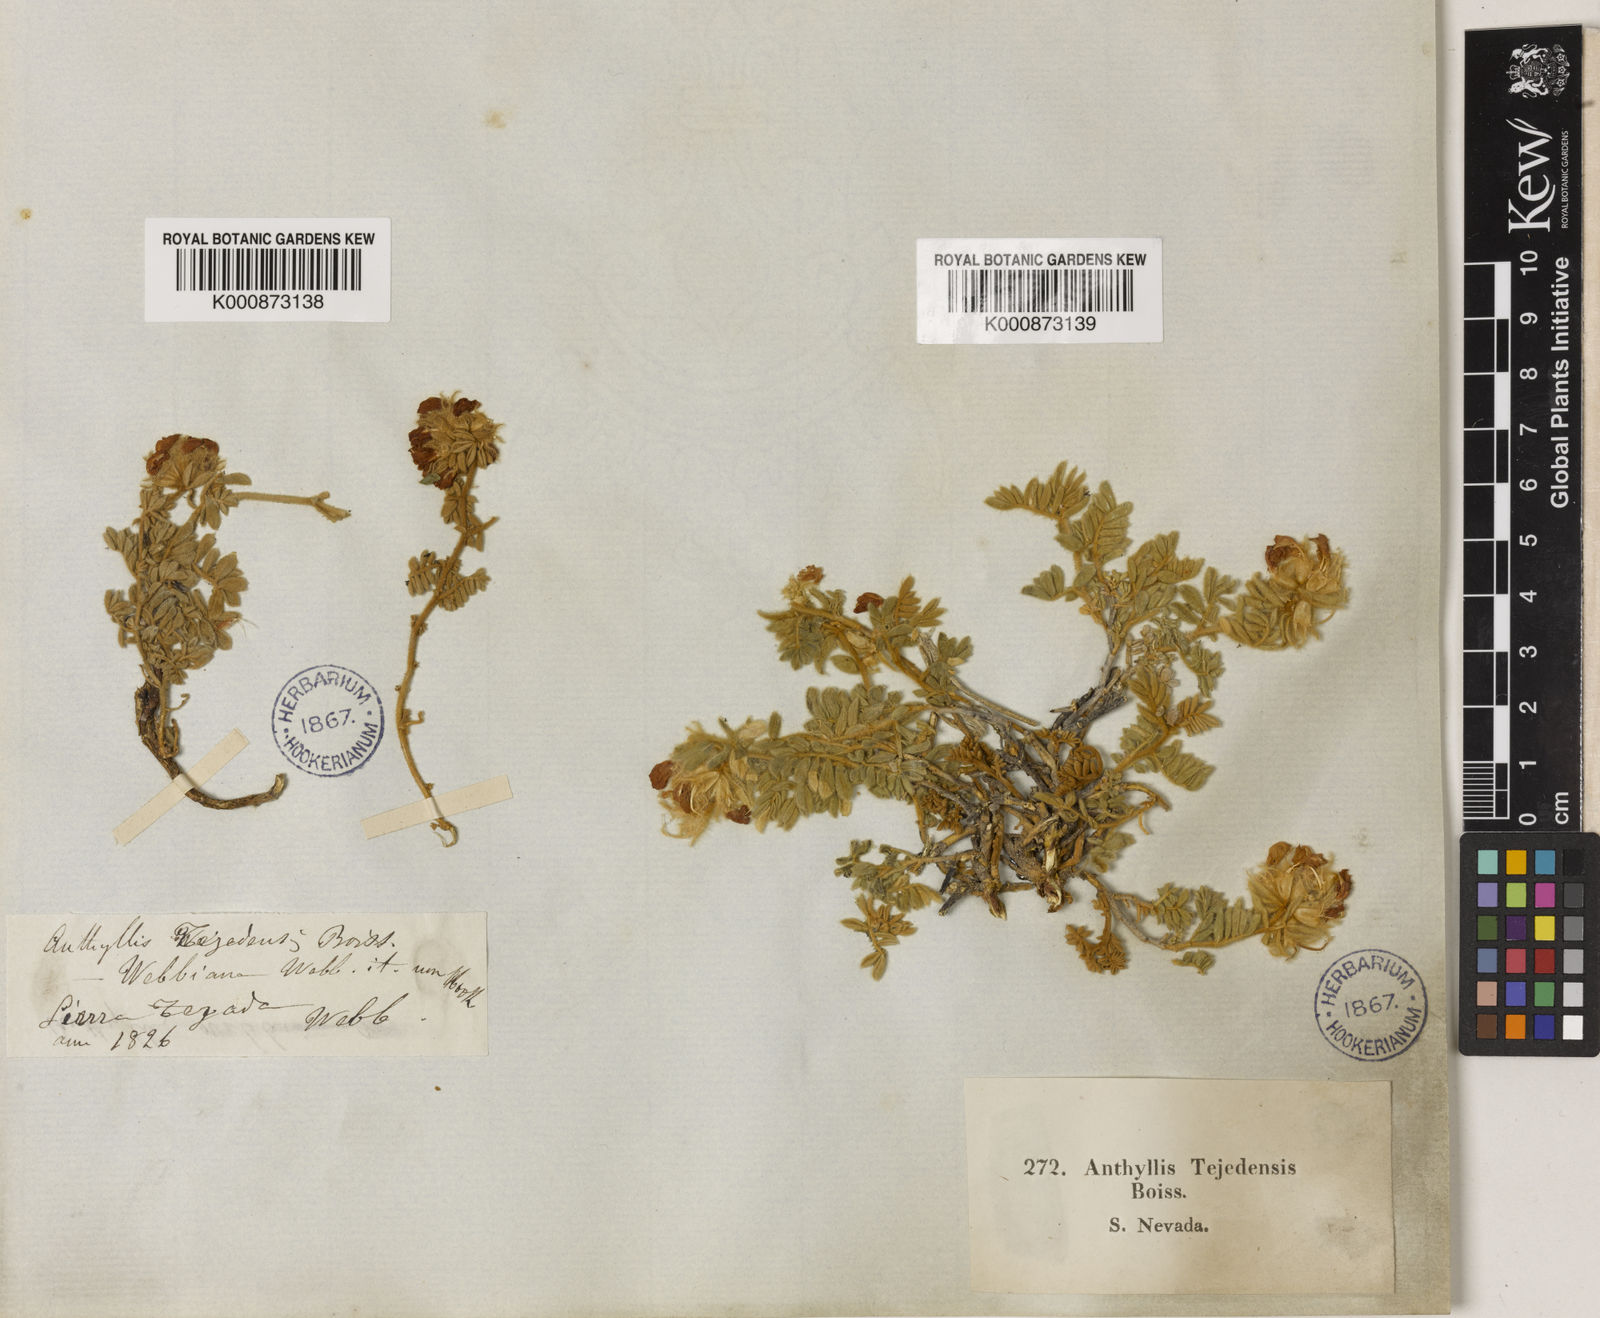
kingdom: Plantae
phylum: Tracheophyta
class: Magnoliopsida
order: Fabales
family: Fabaceae
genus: Anthyllis
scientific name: Anthyllis tejedensis
